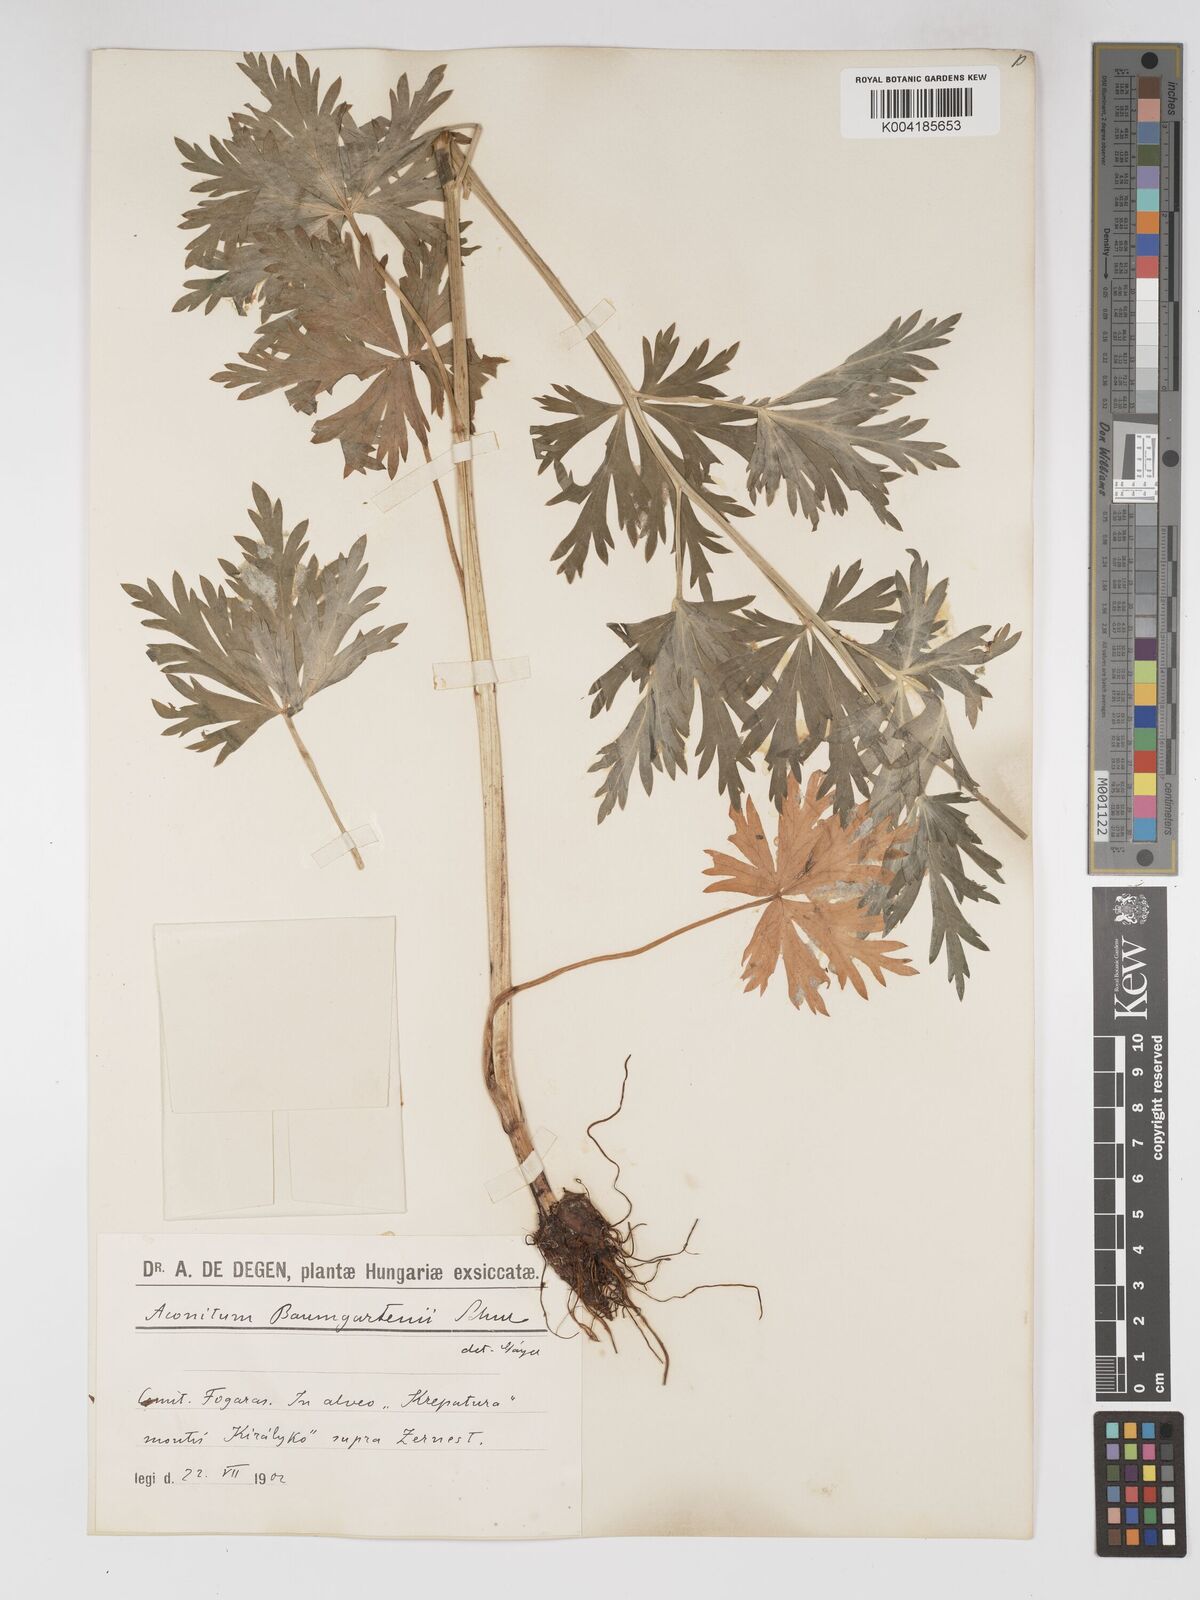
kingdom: Plantae
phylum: Tracheophyta
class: Magnoliopsida
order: Ranunculales
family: Ranunculaceae
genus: Aconitum
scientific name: Aconitum lycoctonum
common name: Wolf's-bane
